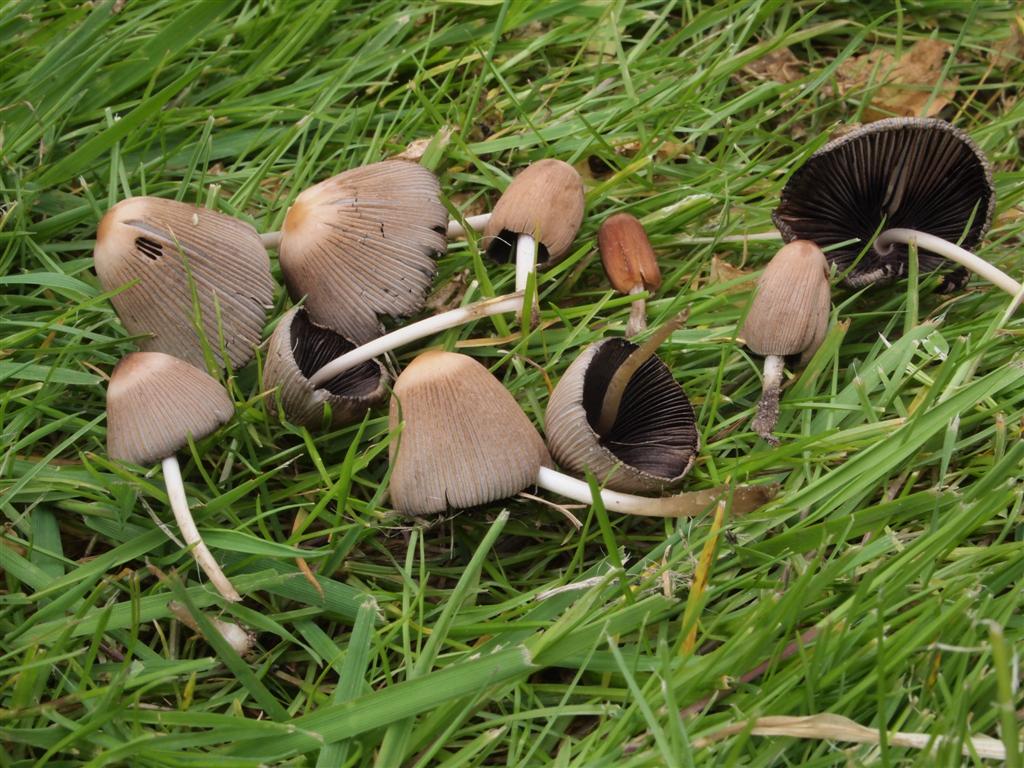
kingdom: Fungi
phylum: Basidiomycota
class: Agaricomycetes
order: Agaricales
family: Psathyrellaceae
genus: Parasola
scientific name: Parasola auricoma
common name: hansens hjulhat
